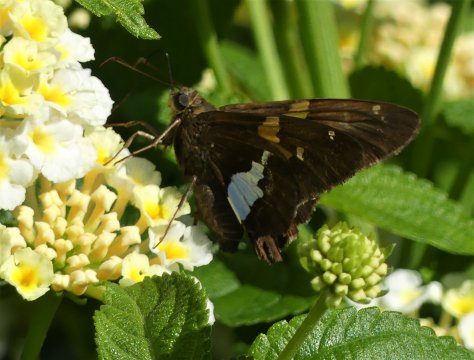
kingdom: Animalia
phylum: Arthropoda
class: Insecta
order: Lepidoptera
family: Hesperiidae
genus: Epargyreus
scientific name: Epargyreus clarus
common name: Silver-spotted Skipper
